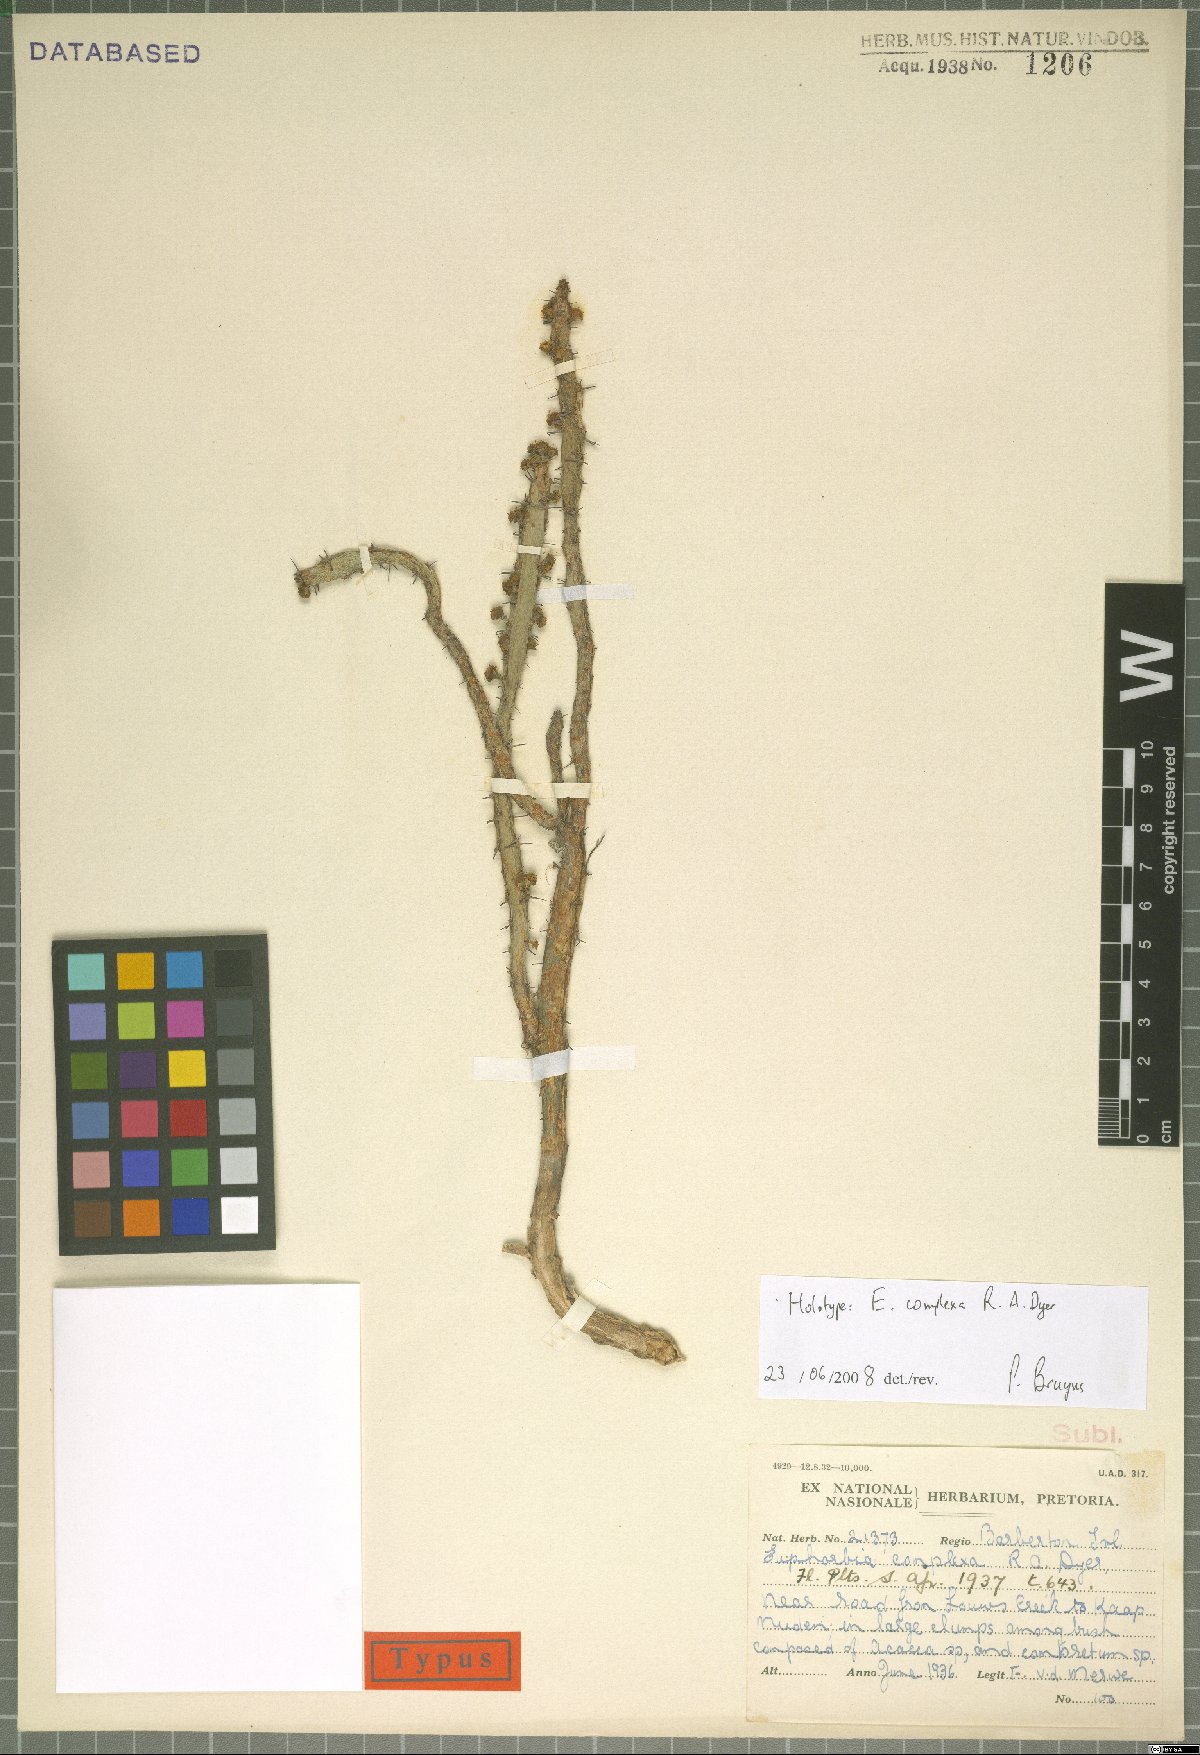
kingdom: Plantae
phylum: Tracheophyta
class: Magnoliopsida
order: Malpighiales
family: Euphorbiaceae
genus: Euphorbia
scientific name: Euphorbia schinzii
